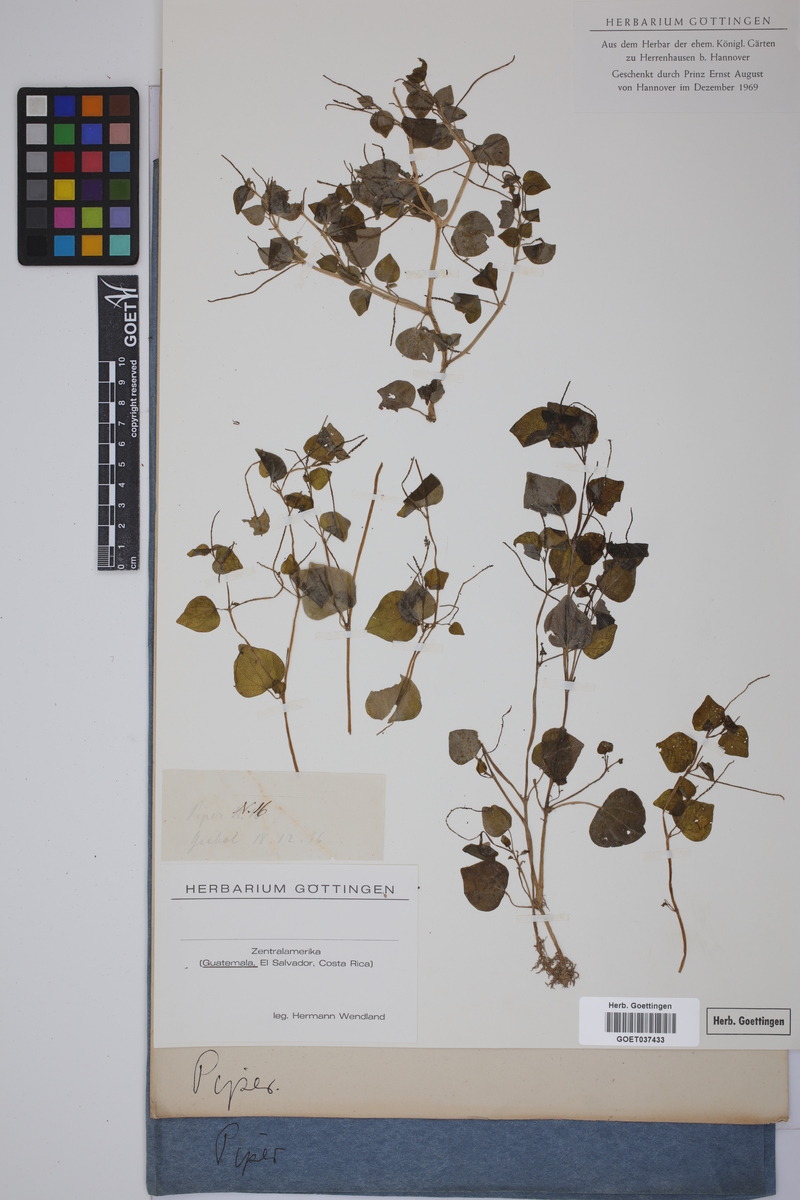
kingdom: Plantae
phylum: Tracheophyta
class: Magnoliopsida
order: Piperales
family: Piperaceae
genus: Piper
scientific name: Piper
